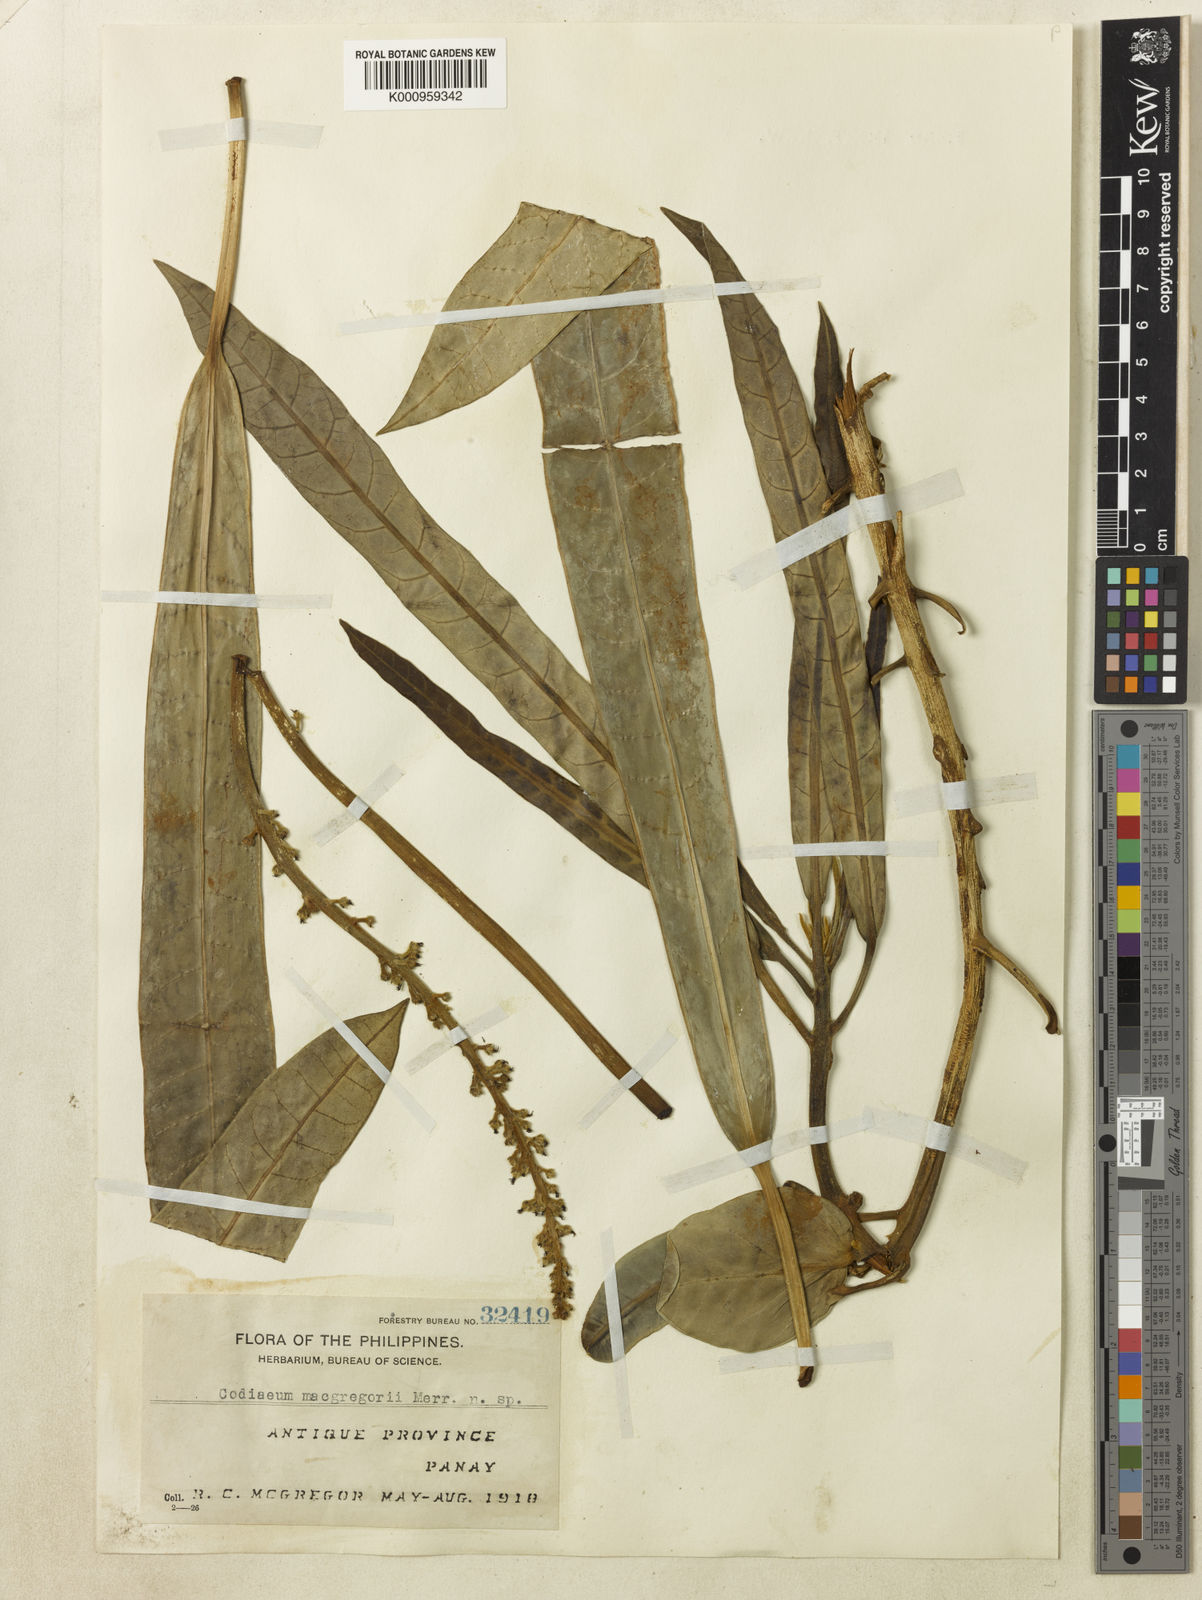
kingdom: Plantae
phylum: Tracheophyta
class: Magnoliopsida
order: Malpighiales
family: Euphorbiaceae
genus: Codiaeum
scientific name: Codiaeum macgregorii
